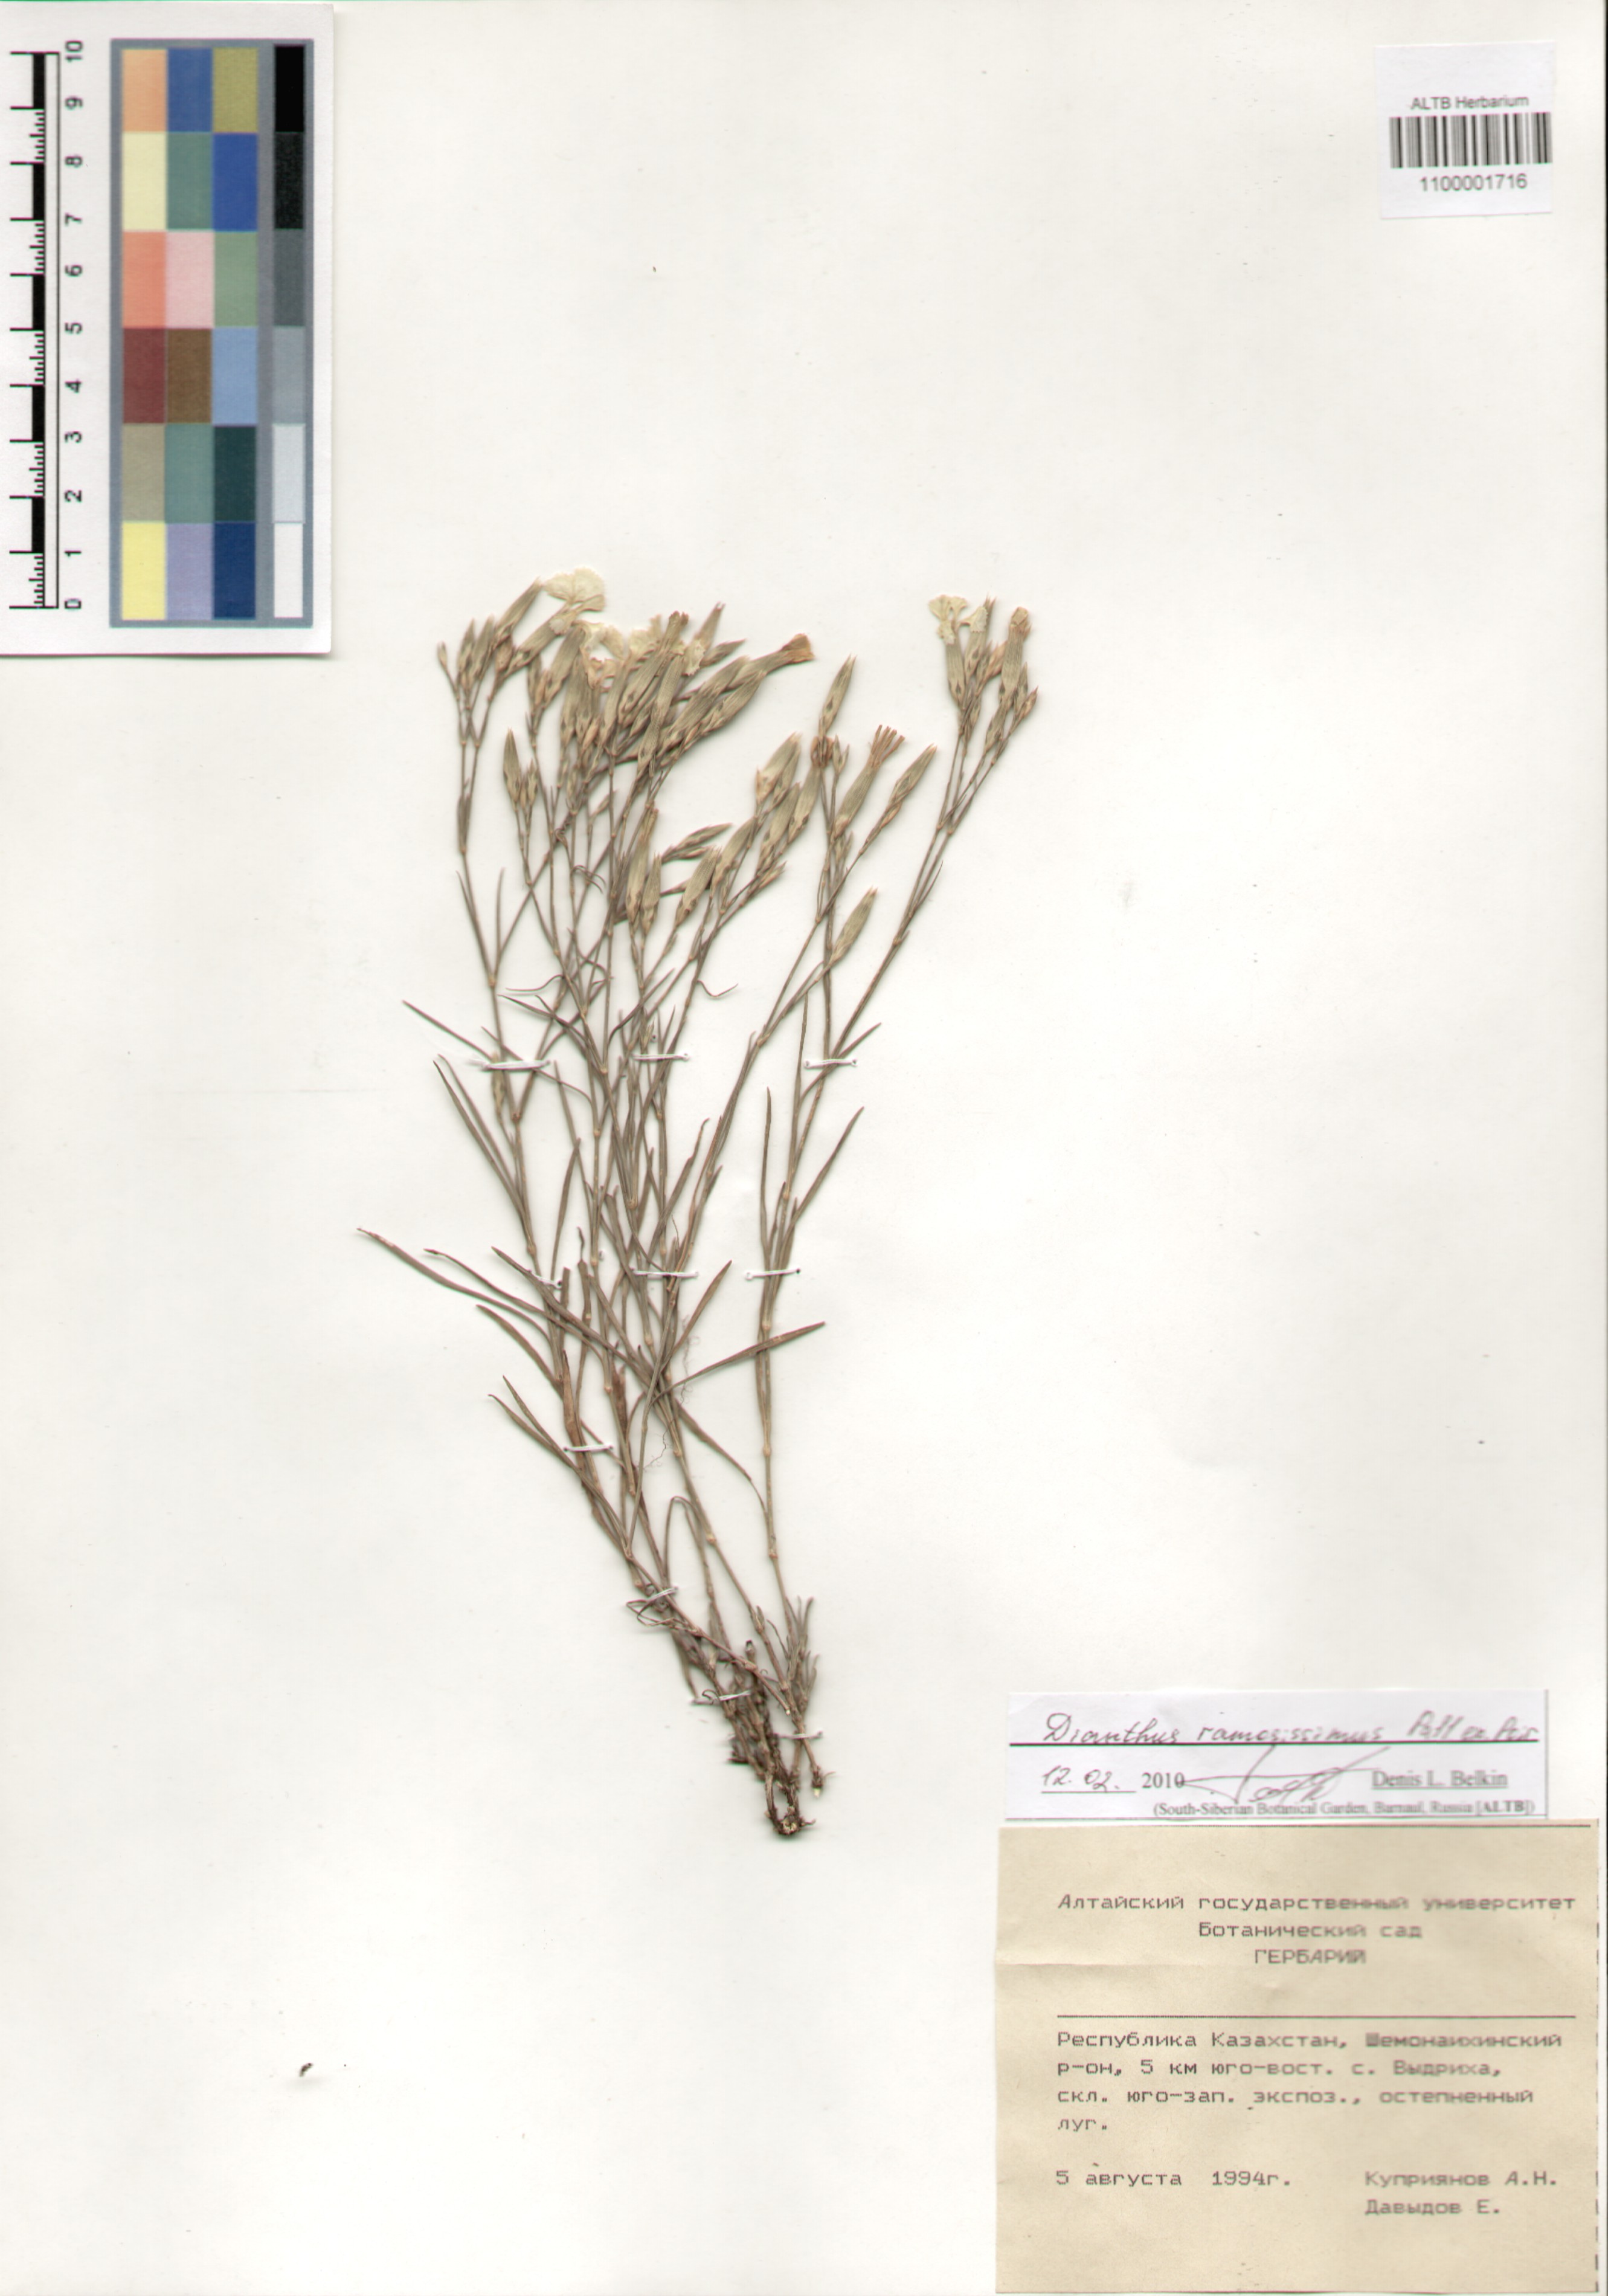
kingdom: Plantae
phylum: Tracheophyta
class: Magnoliopsida
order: Caryophyllales
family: Caryophyllaceae
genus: Dianthus
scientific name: Dianthus ramosissimus
